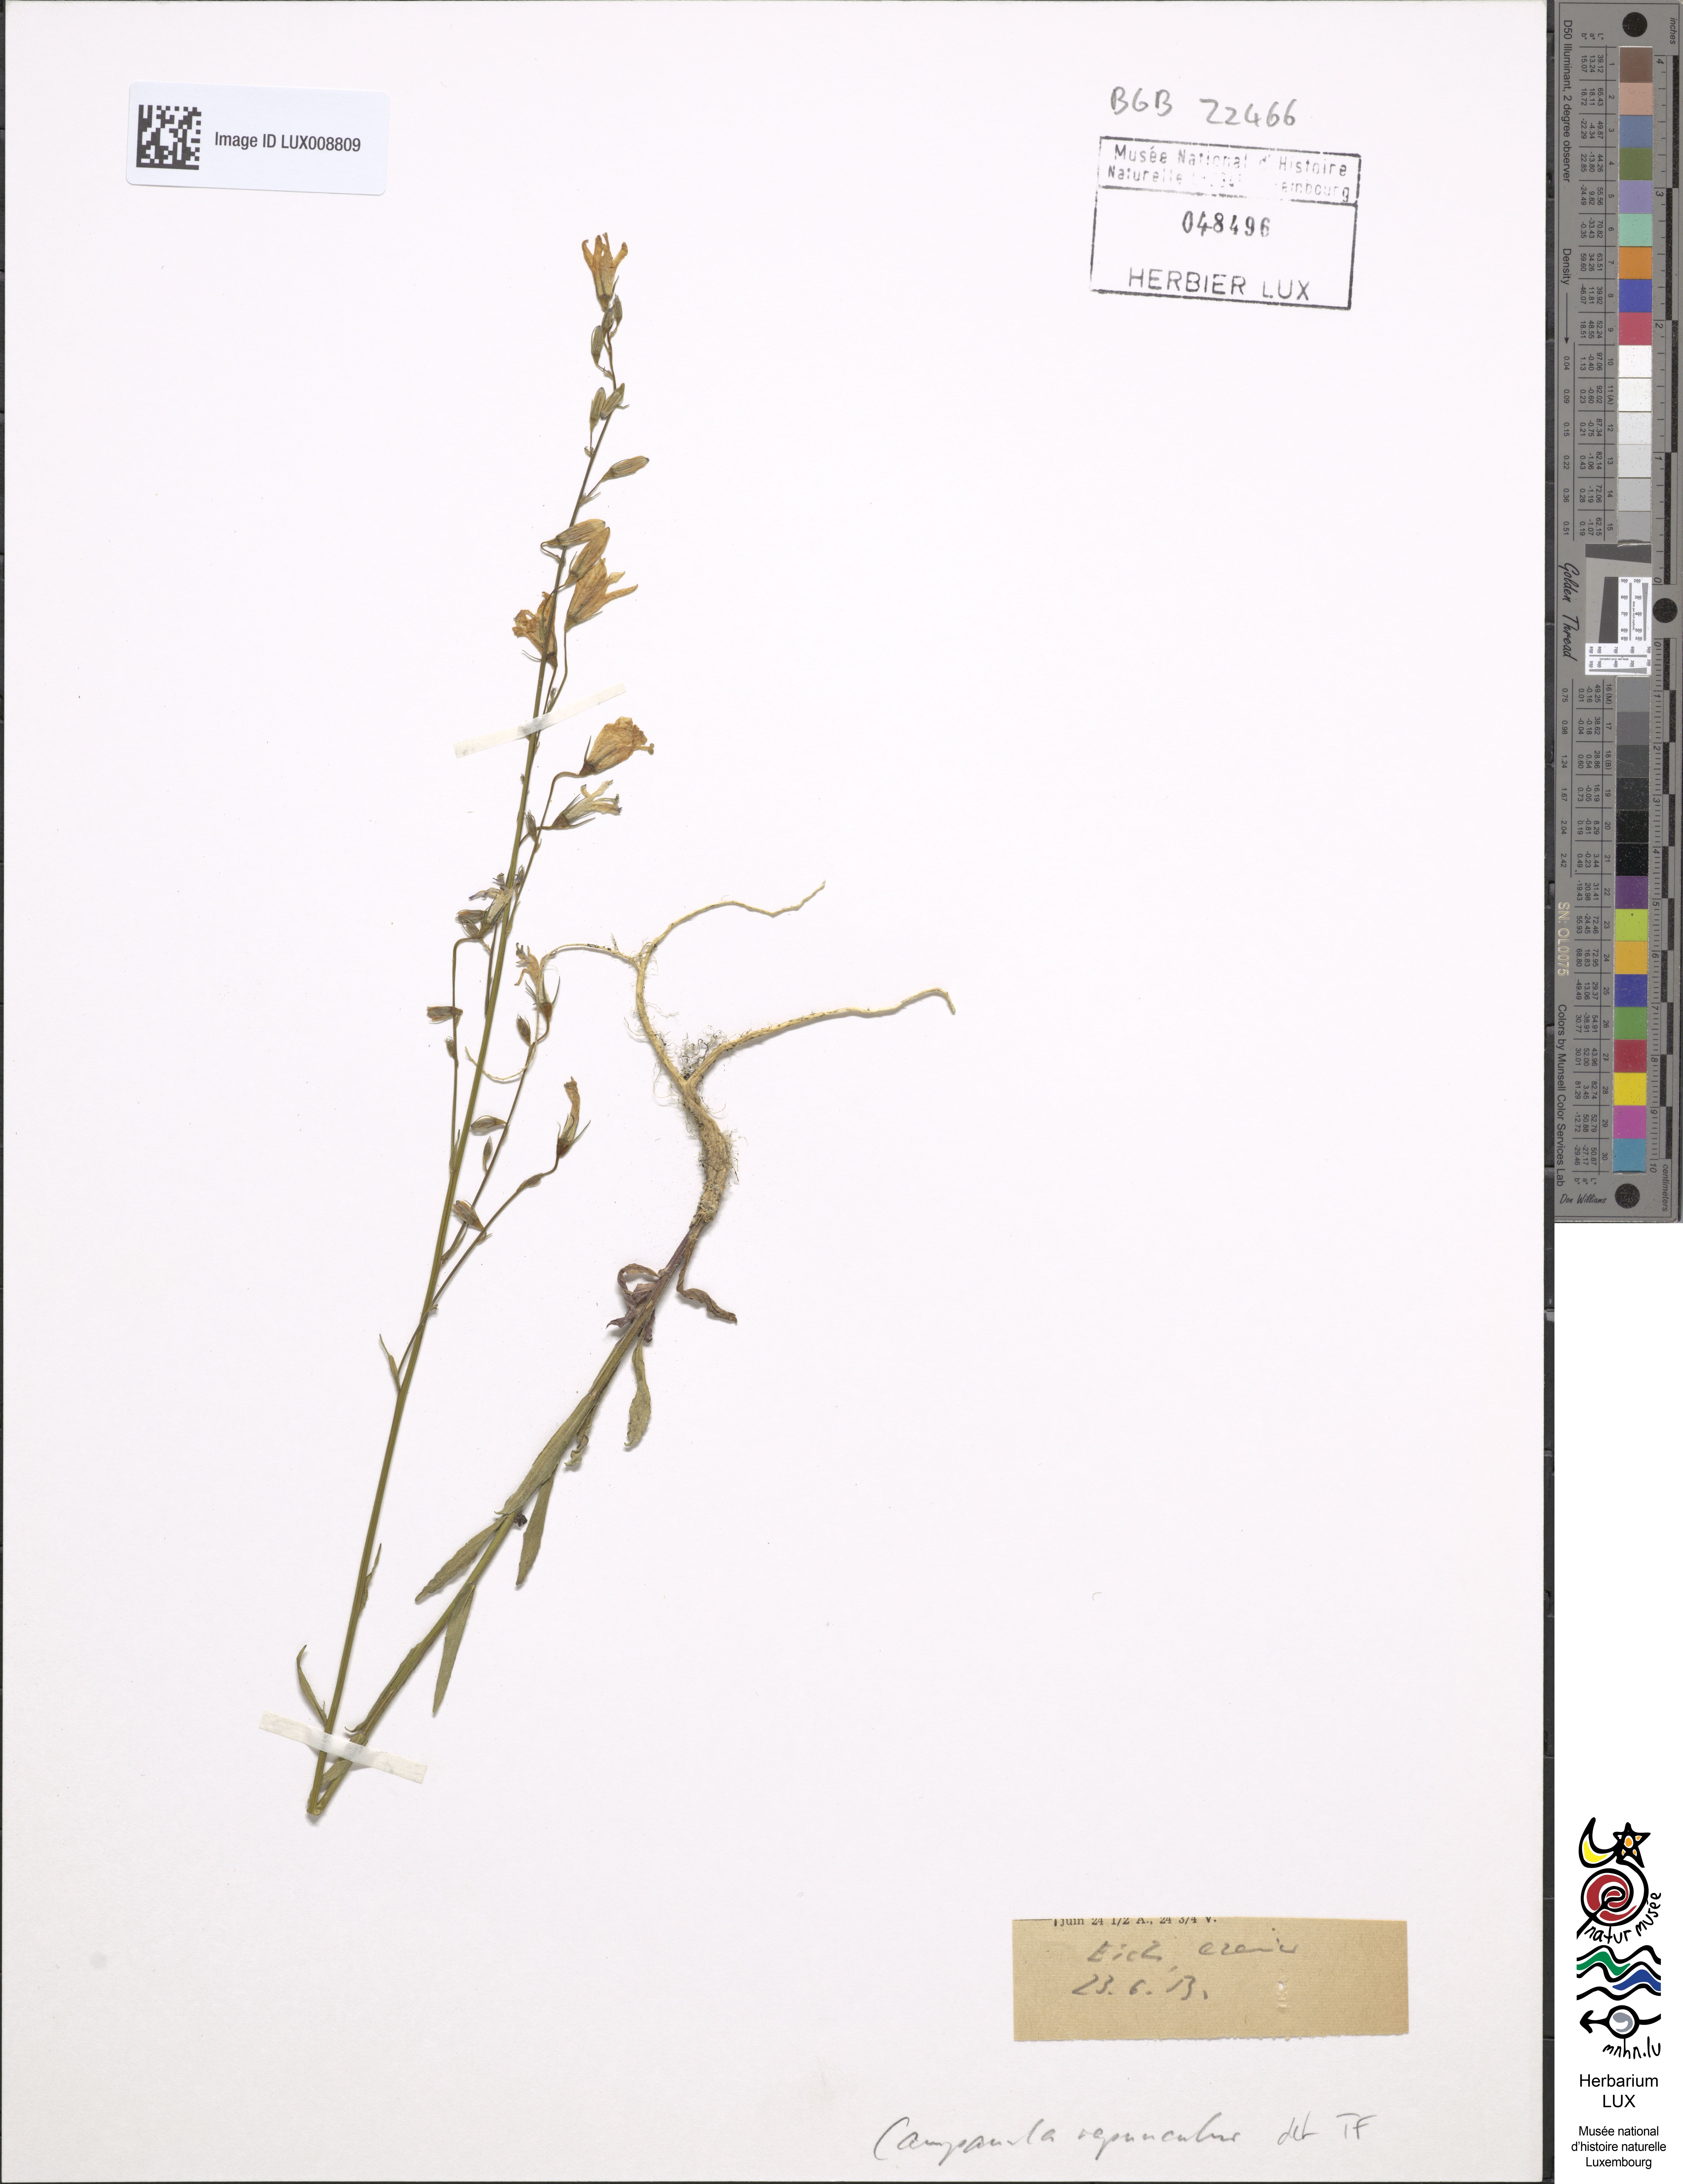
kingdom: Plantae
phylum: Tracheophyta
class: Magnoliopsida
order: Asterales
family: Campanulaceae
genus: Campanula
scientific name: Campanula rapunculus
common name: Rampion bellflower
